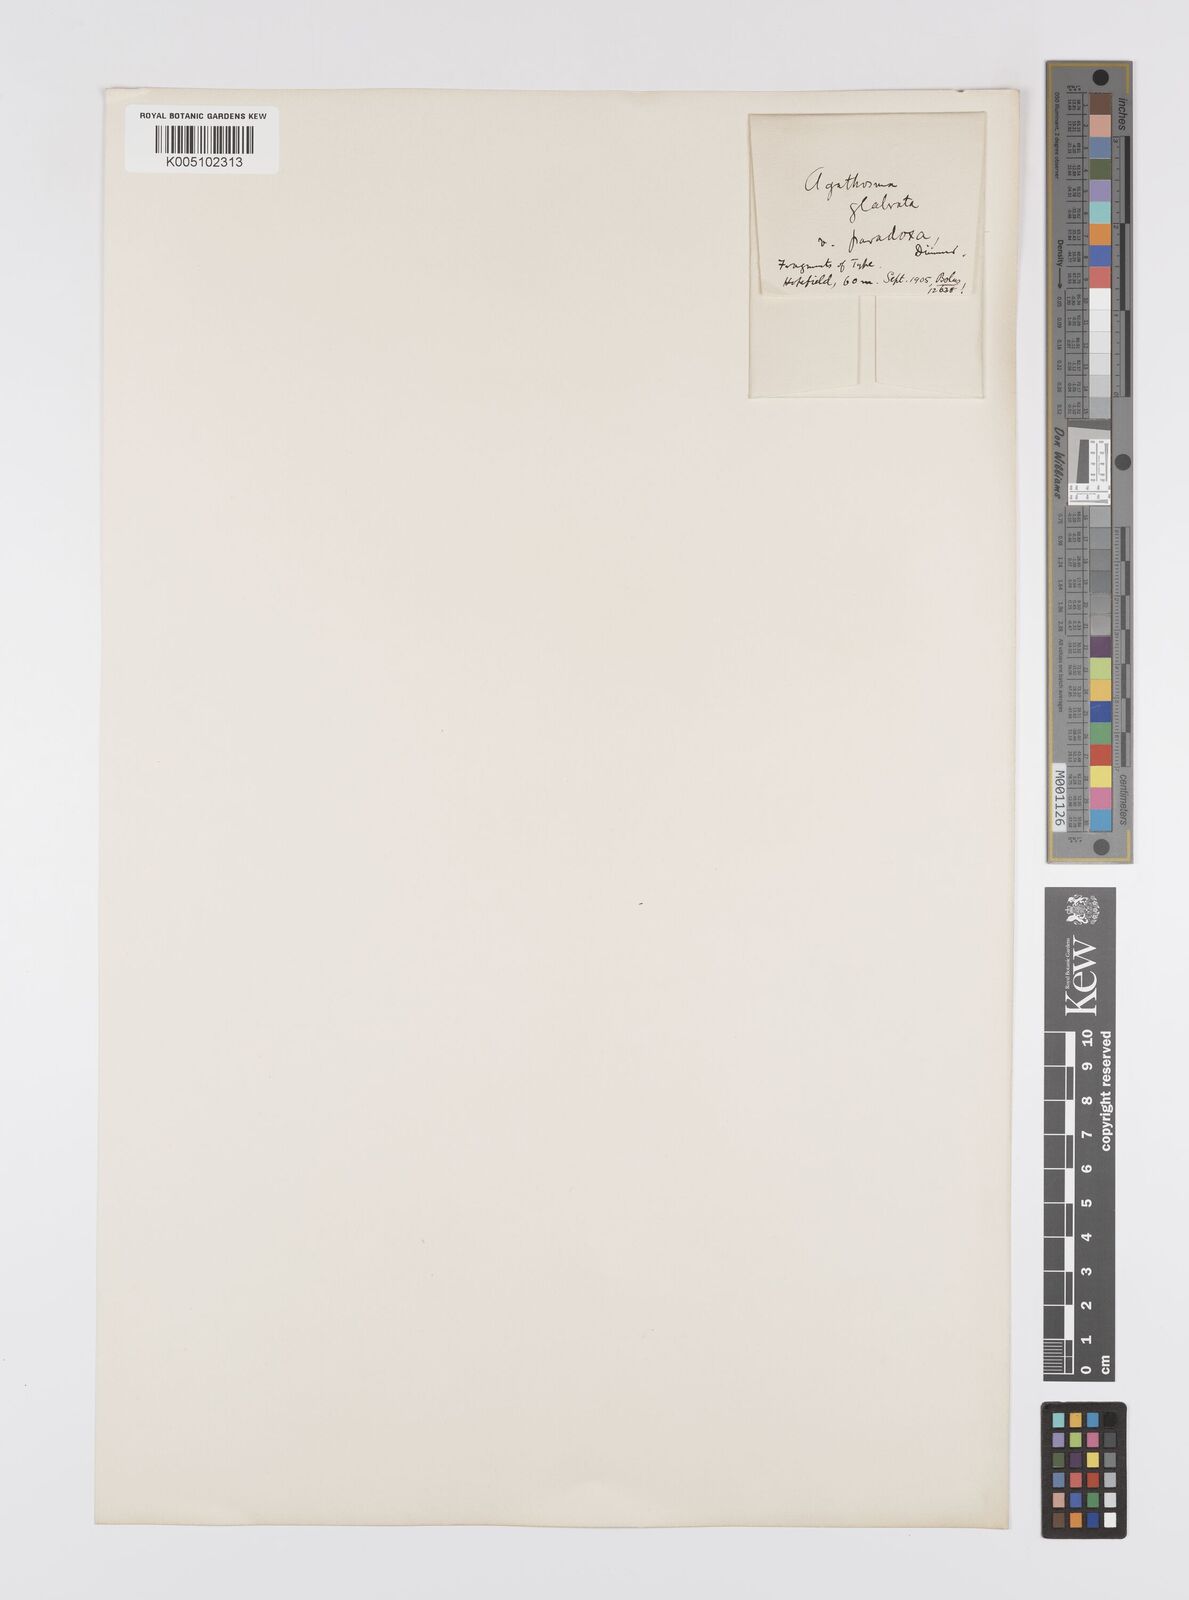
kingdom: Plantae
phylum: Tracheophyta
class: Magnoliopsida
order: Sapindales
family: Rutaceae
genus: Agathosma
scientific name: Agathosma
